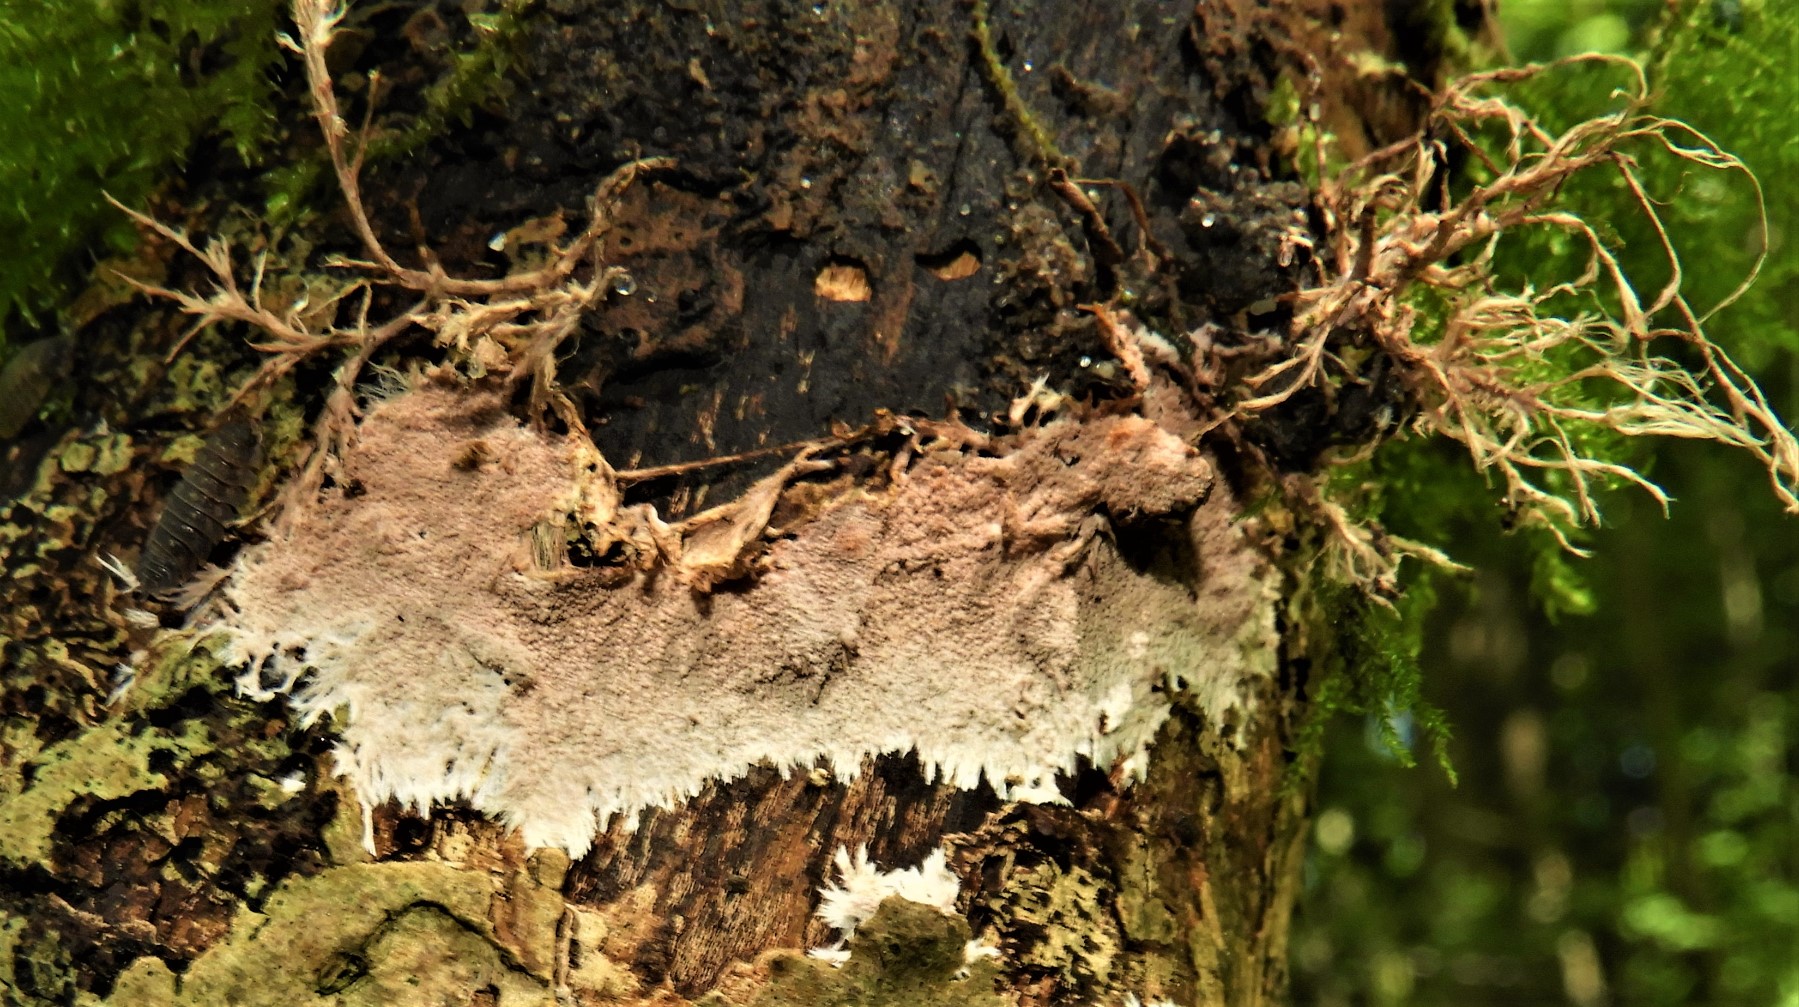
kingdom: Fungi
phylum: Basidiomycota
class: Agaricomycetes
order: Polyporales
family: Steccherinaceae
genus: Steccherinum
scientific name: Steccherinum fimbriatum
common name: trådet skønpig
